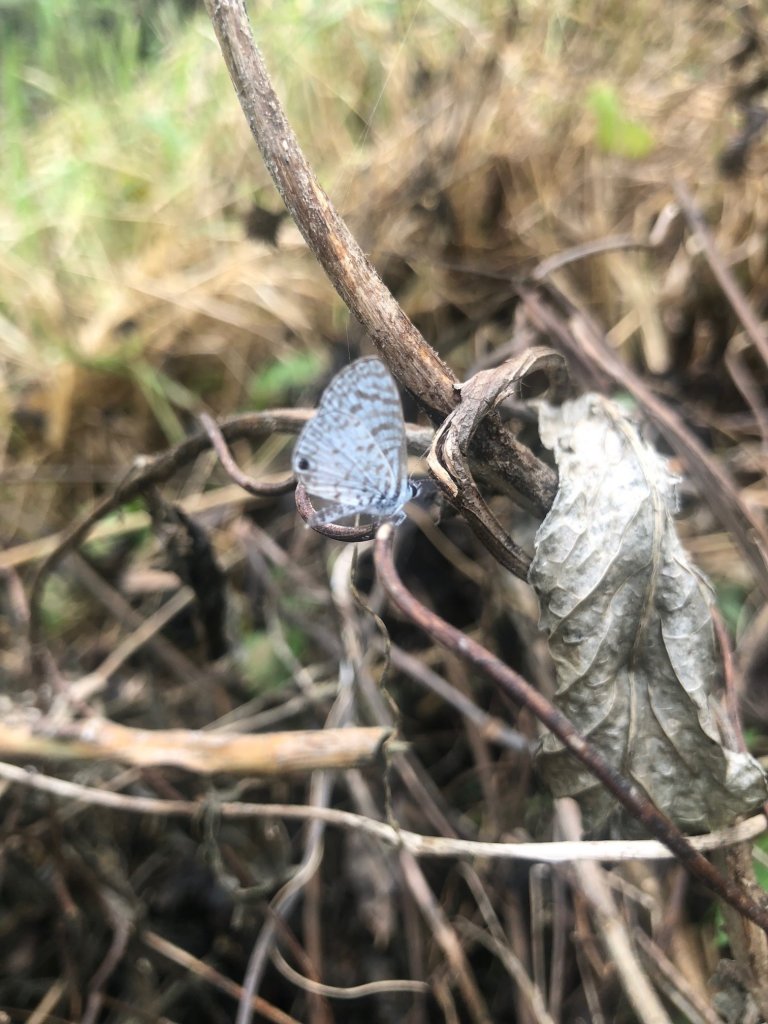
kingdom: Animalia
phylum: Arthropoda
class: Insecta
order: Lepidoptera
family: Lycaenidae
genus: Leptotes
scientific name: Leptotes cassius
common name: Cassius Blue
